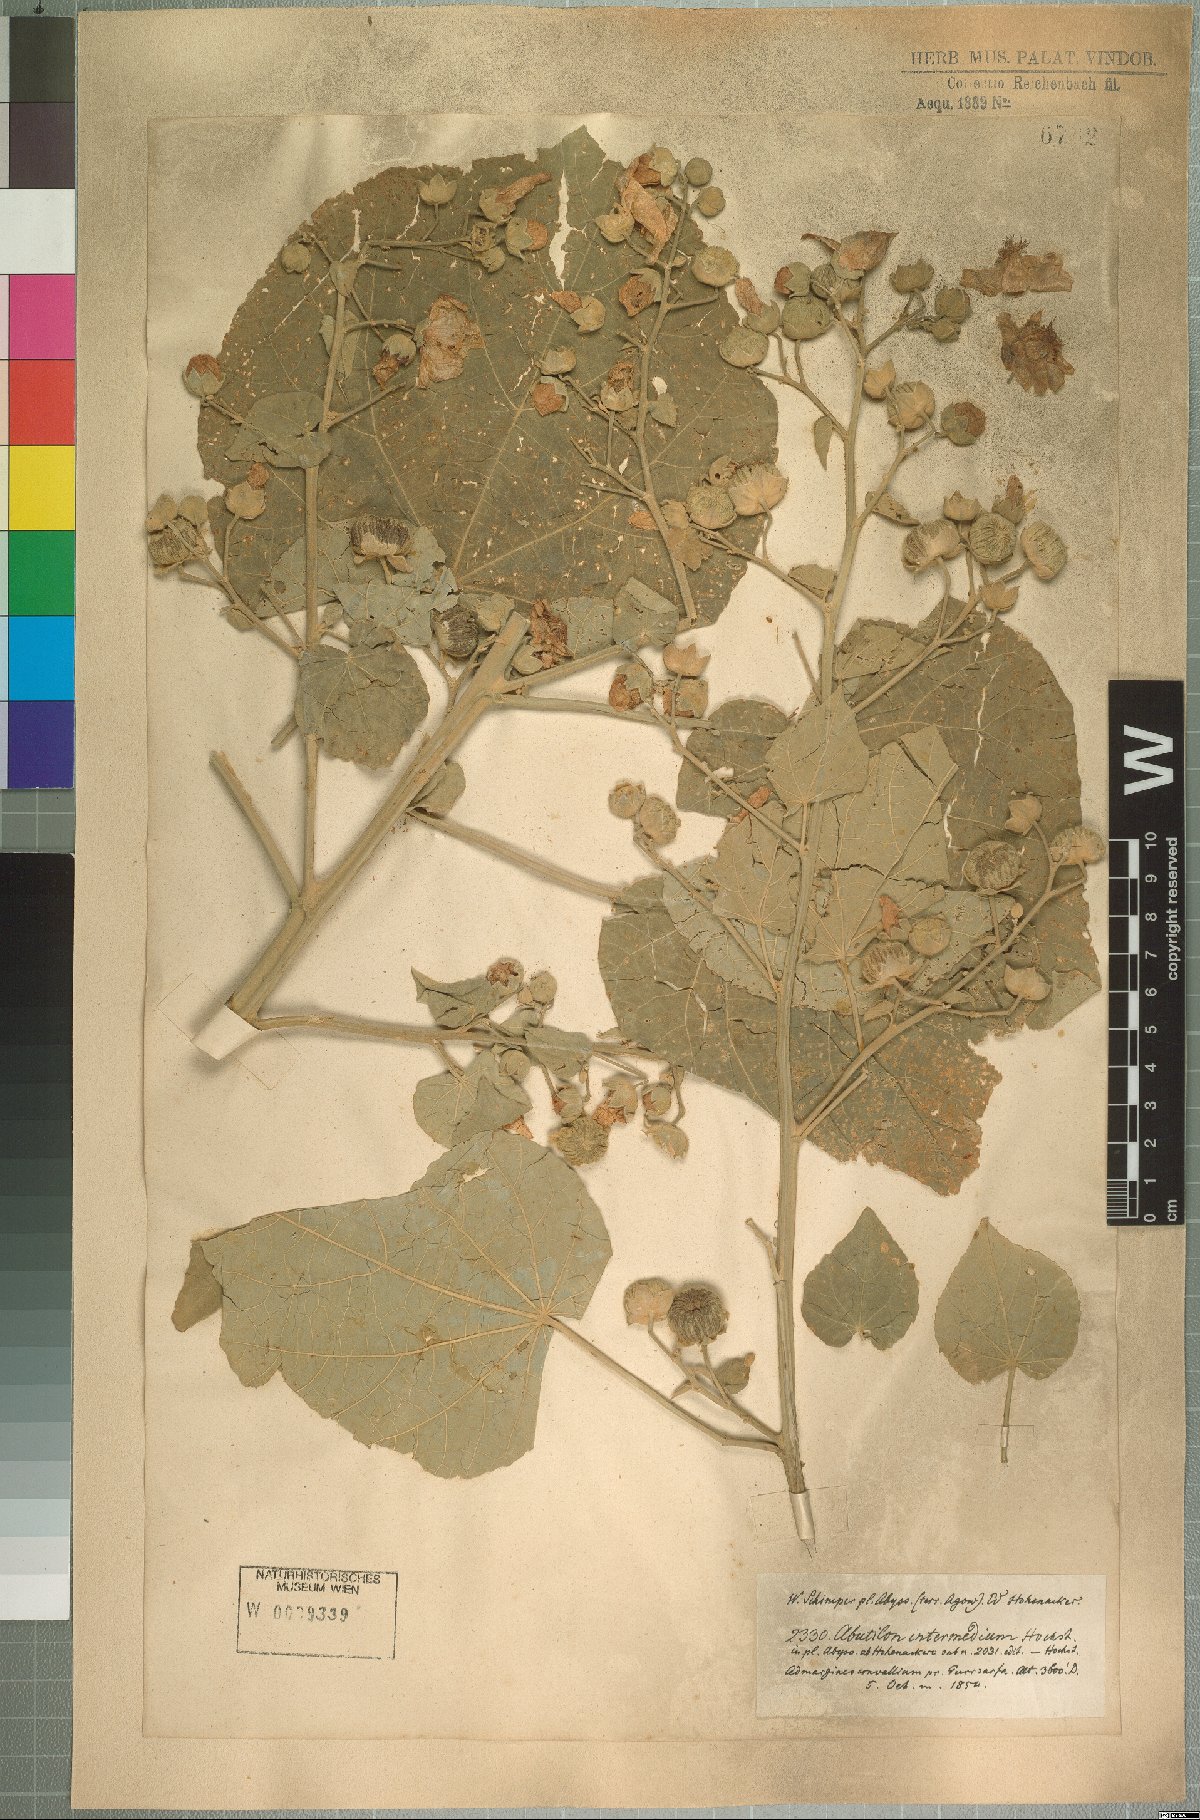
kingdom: Plantae
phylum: Tracheophyta
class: Magnoliopsida
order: Malvales
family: Malvaceae
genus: Abutilon
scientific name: Abutilon angulatum
